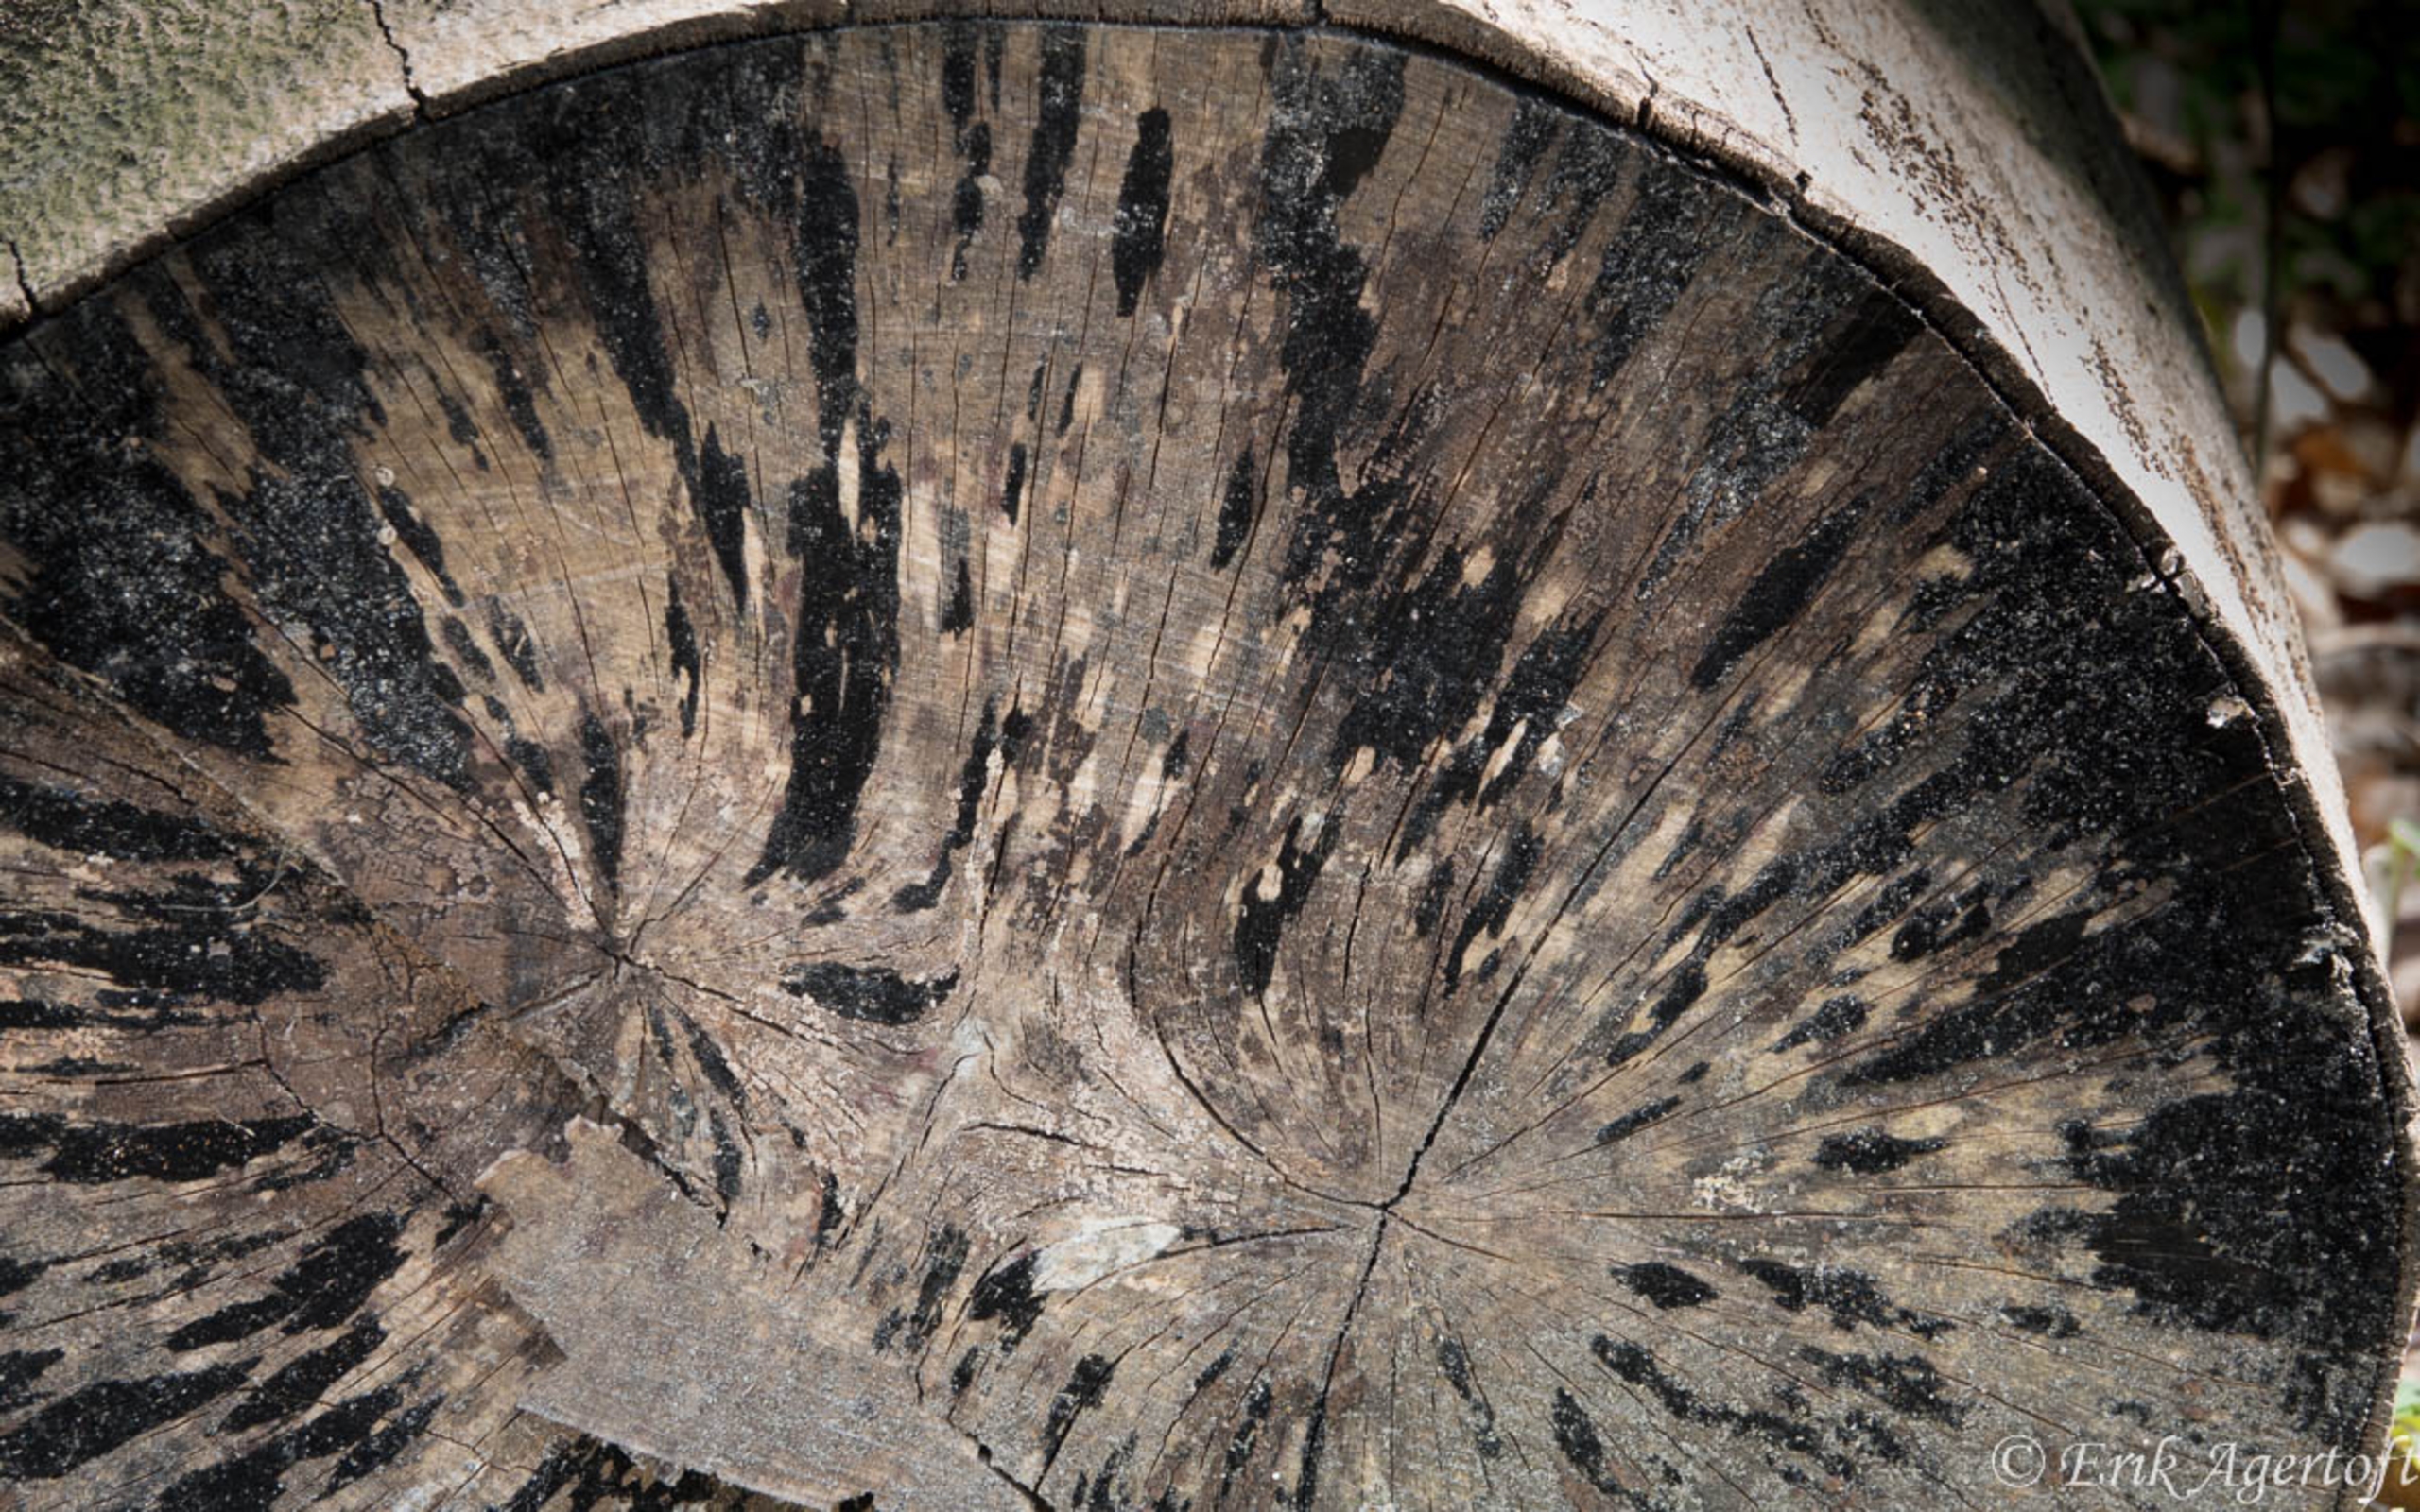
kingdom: Fungi
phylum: Ascomycota
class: Leotiomycetes
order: Helotiales
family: Helotiaceae
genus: Bispora
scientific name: Bispora antennata
